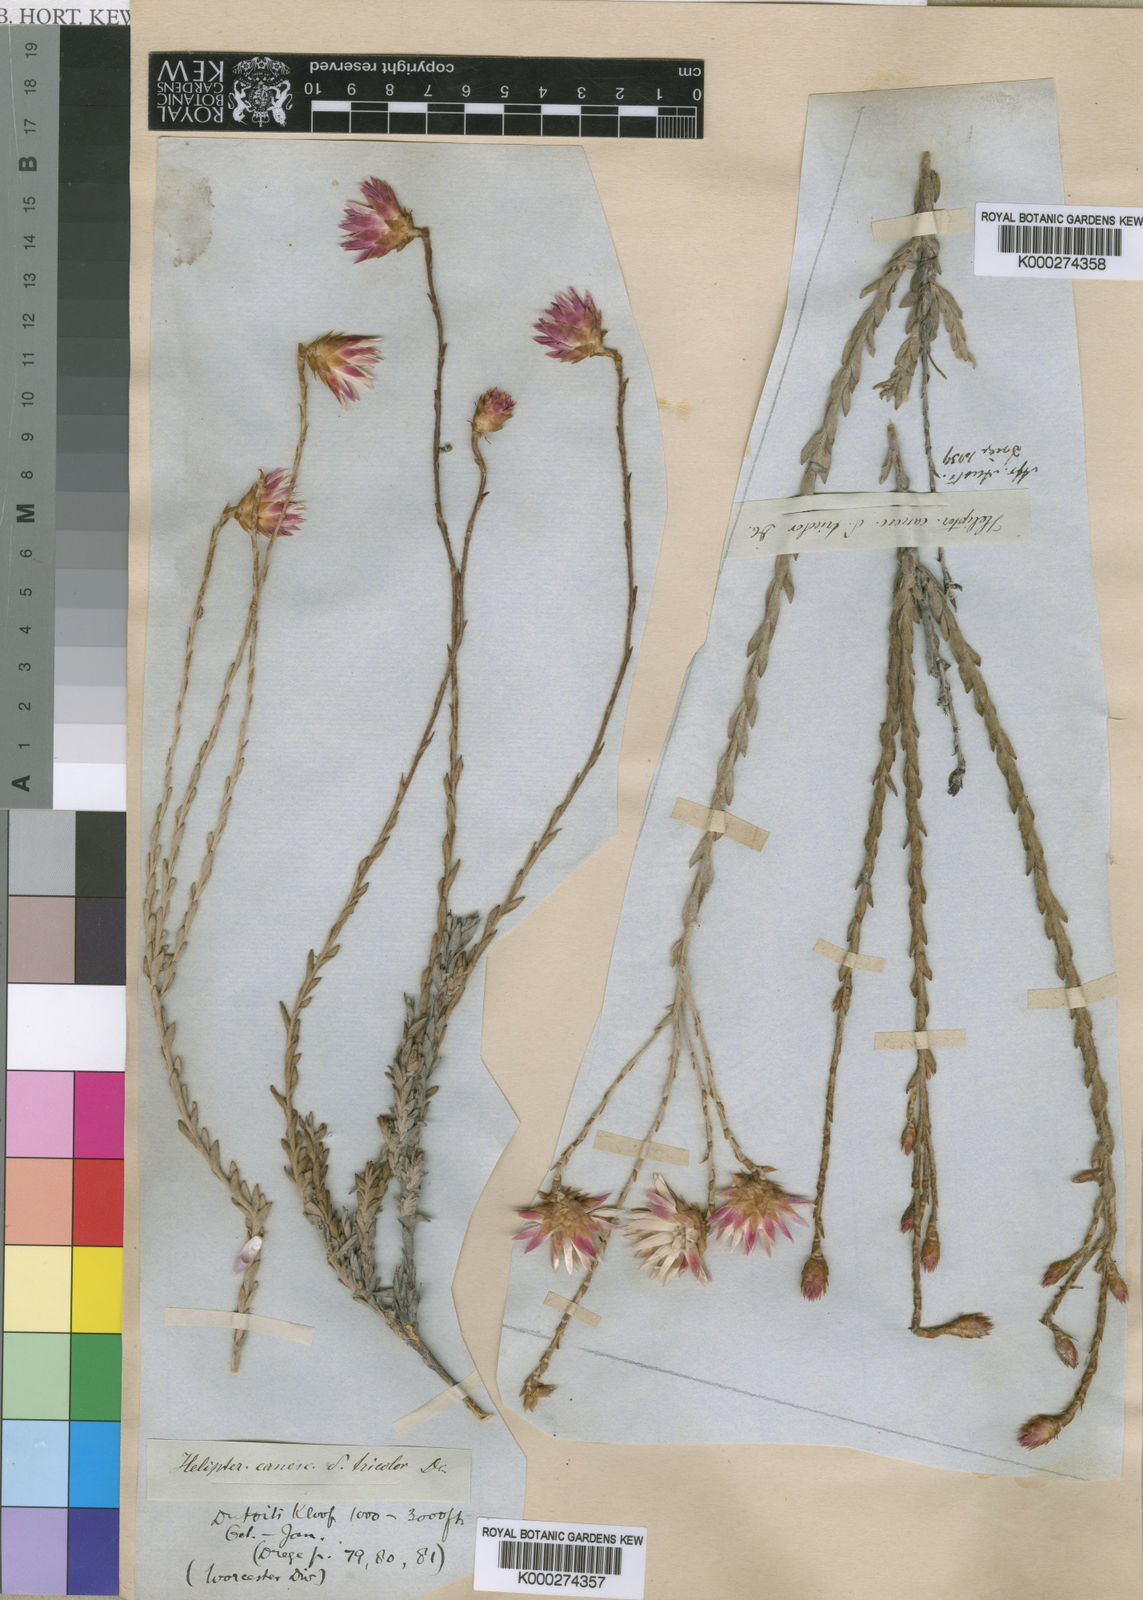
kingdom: Plantae
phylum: Tracheophyta
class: Magnoliopsida
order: Asterales
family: Asteraceae
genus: Syncarpha
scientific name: Syncarpha canescens
